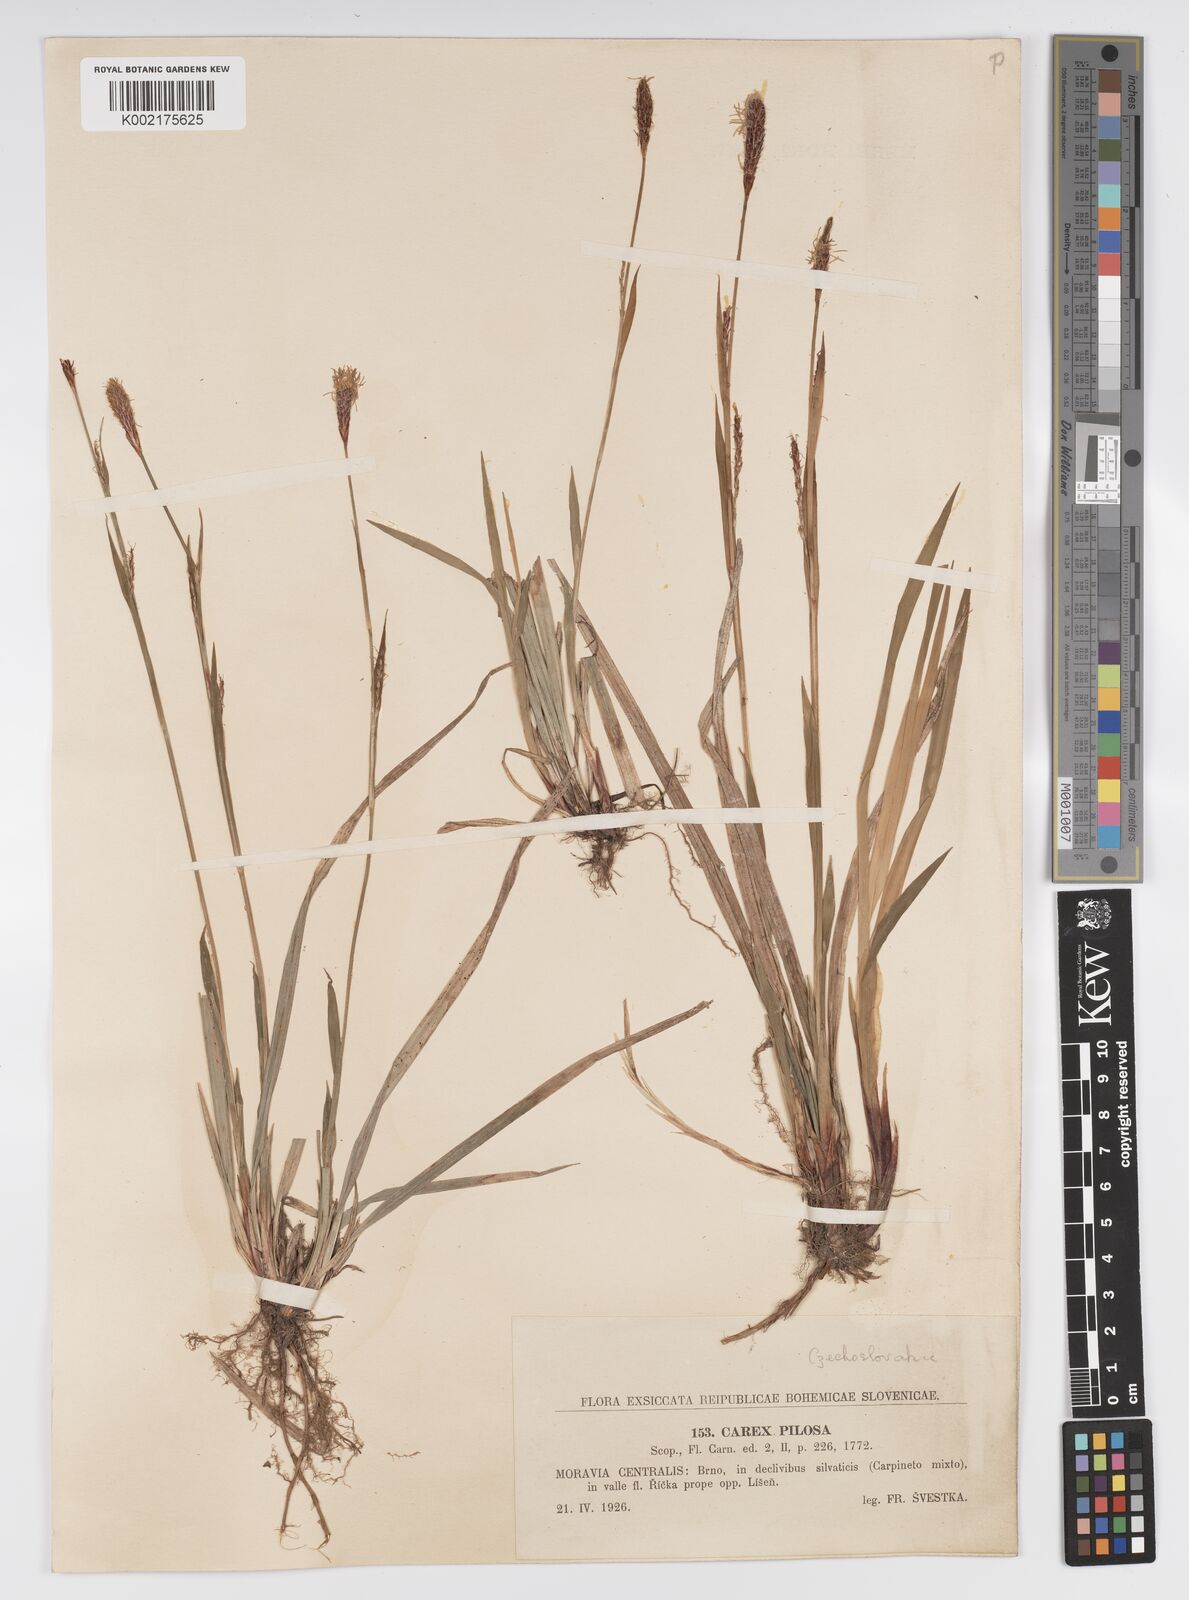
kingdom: Plantae
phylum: Tracheophyta
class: Liliopsida
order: Poales
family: Cyperaceae
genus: Carex
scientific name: Carex pilosa
